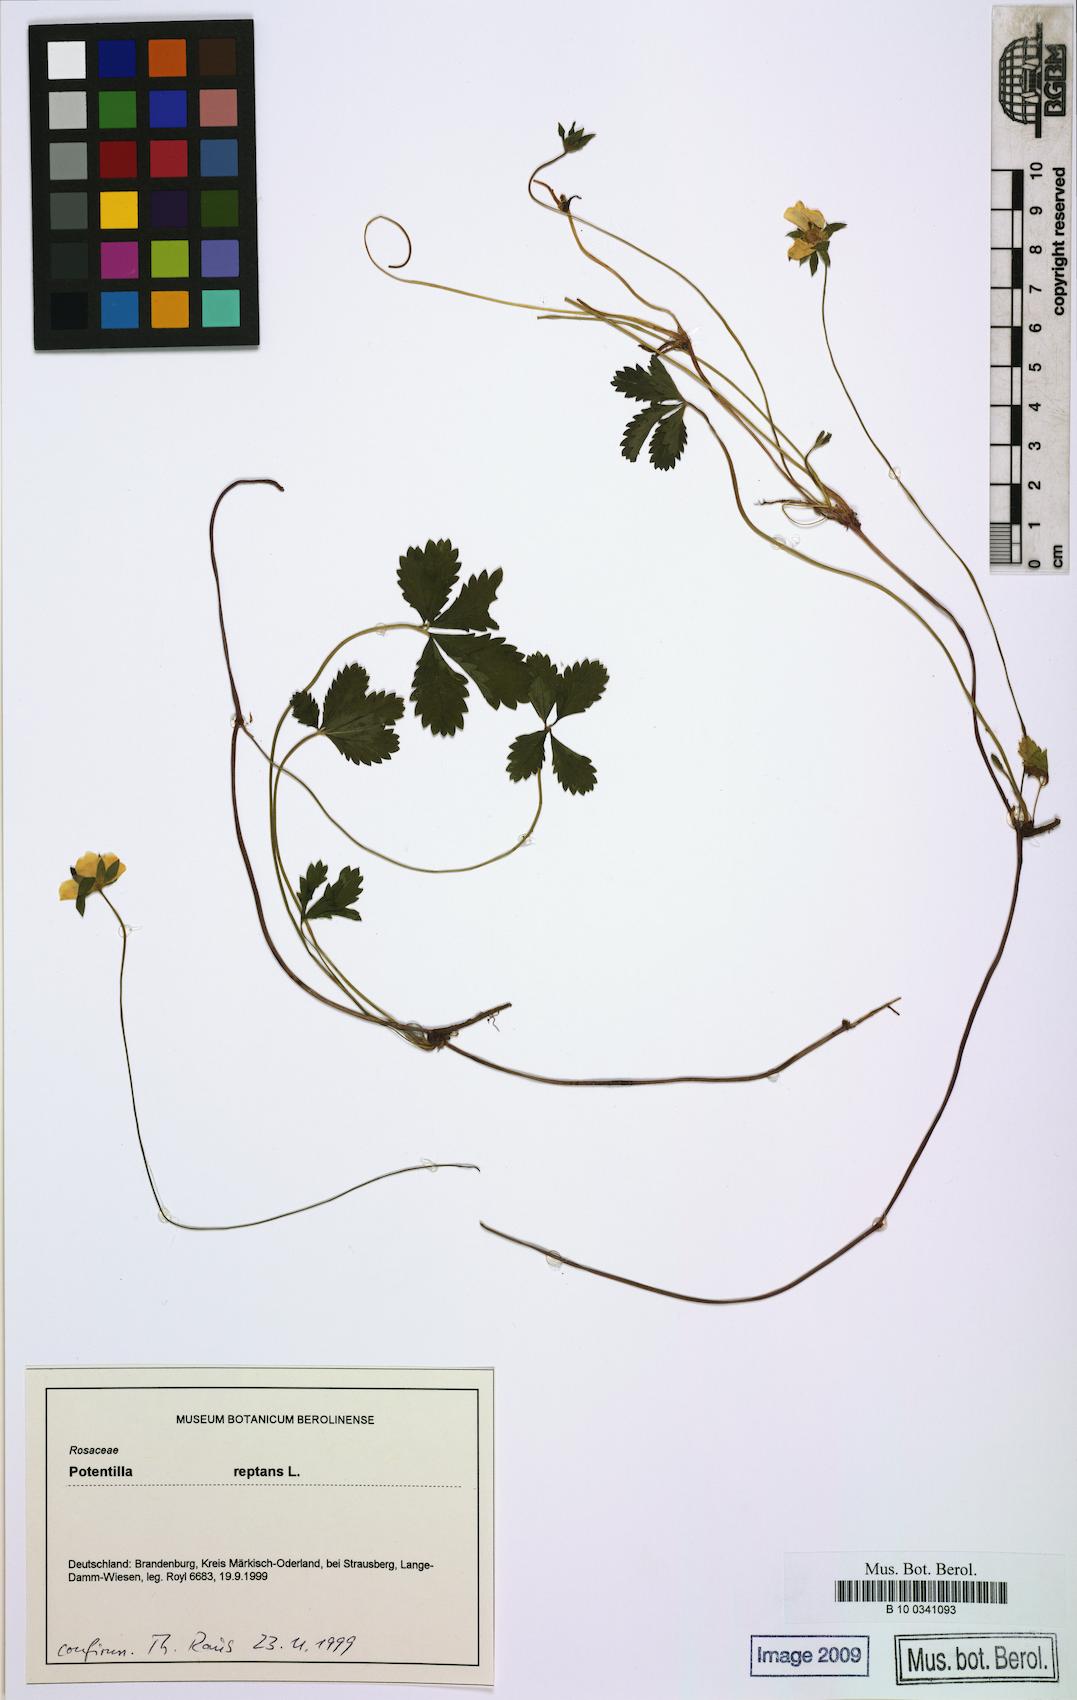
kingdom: Plantae
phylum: Tracheophyta
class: Magnoliopsida
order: Rosales
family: Rosaceae
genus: Potentilla
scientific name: Potentilla reptans
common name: Creeping cinquefoil
